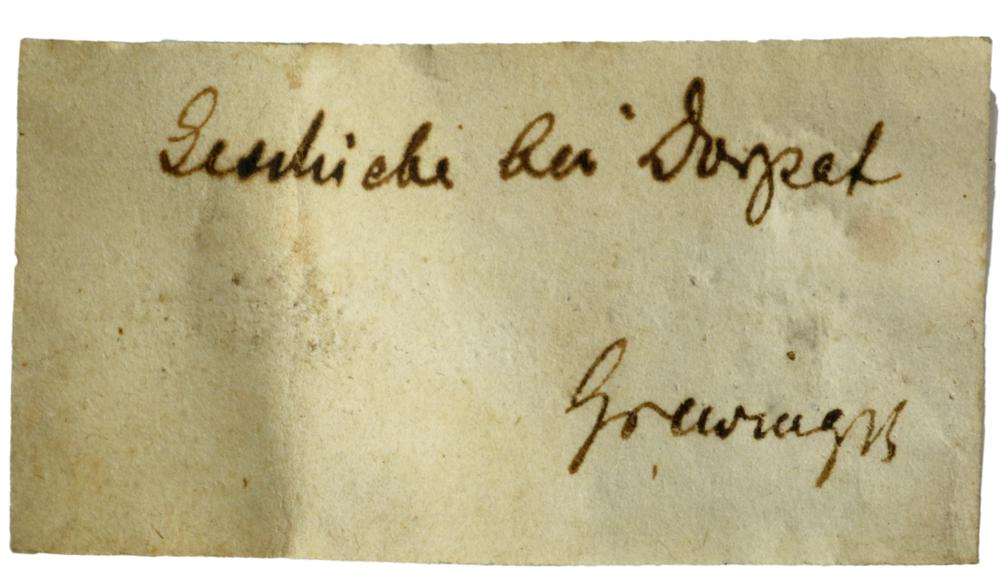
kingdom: Animalia
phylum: Mollusca
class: Cephalopoda
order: Orthocerida
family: Orthoceratidae
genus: Orthoceras
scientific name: Orthoceras regulare
